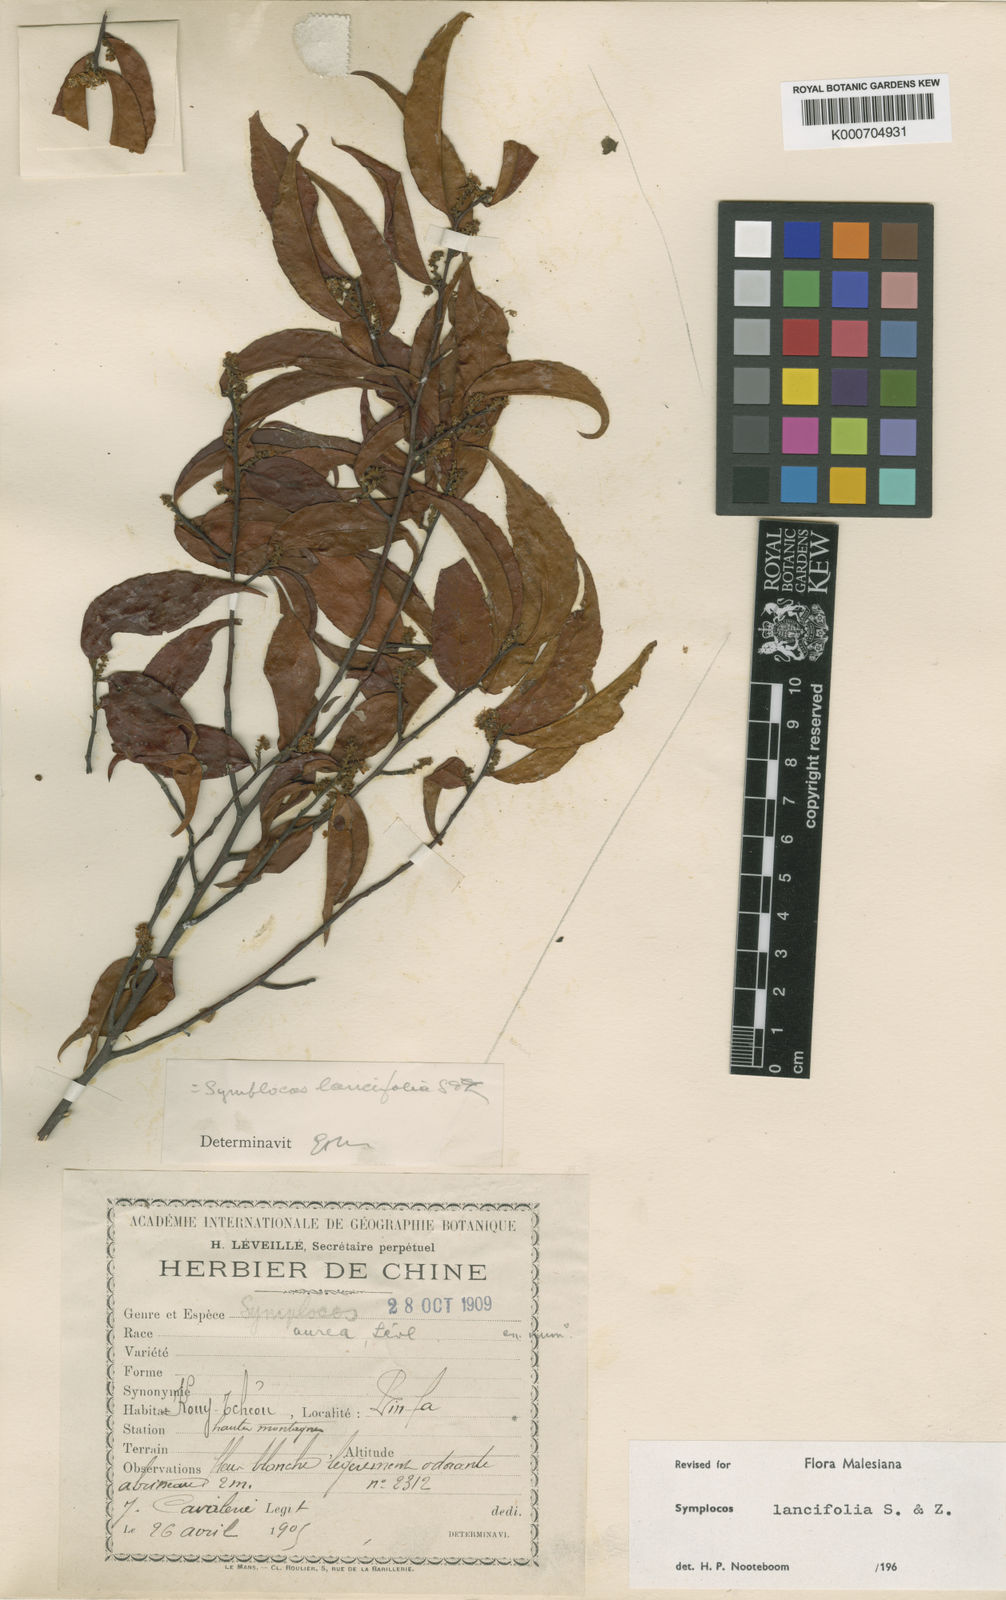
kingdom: Plantae
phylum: Tracheophyta
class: Magnoliopsida
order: Ericales
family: Symplocaceae
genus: Symplocos
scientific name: Symplocos lancifolia
